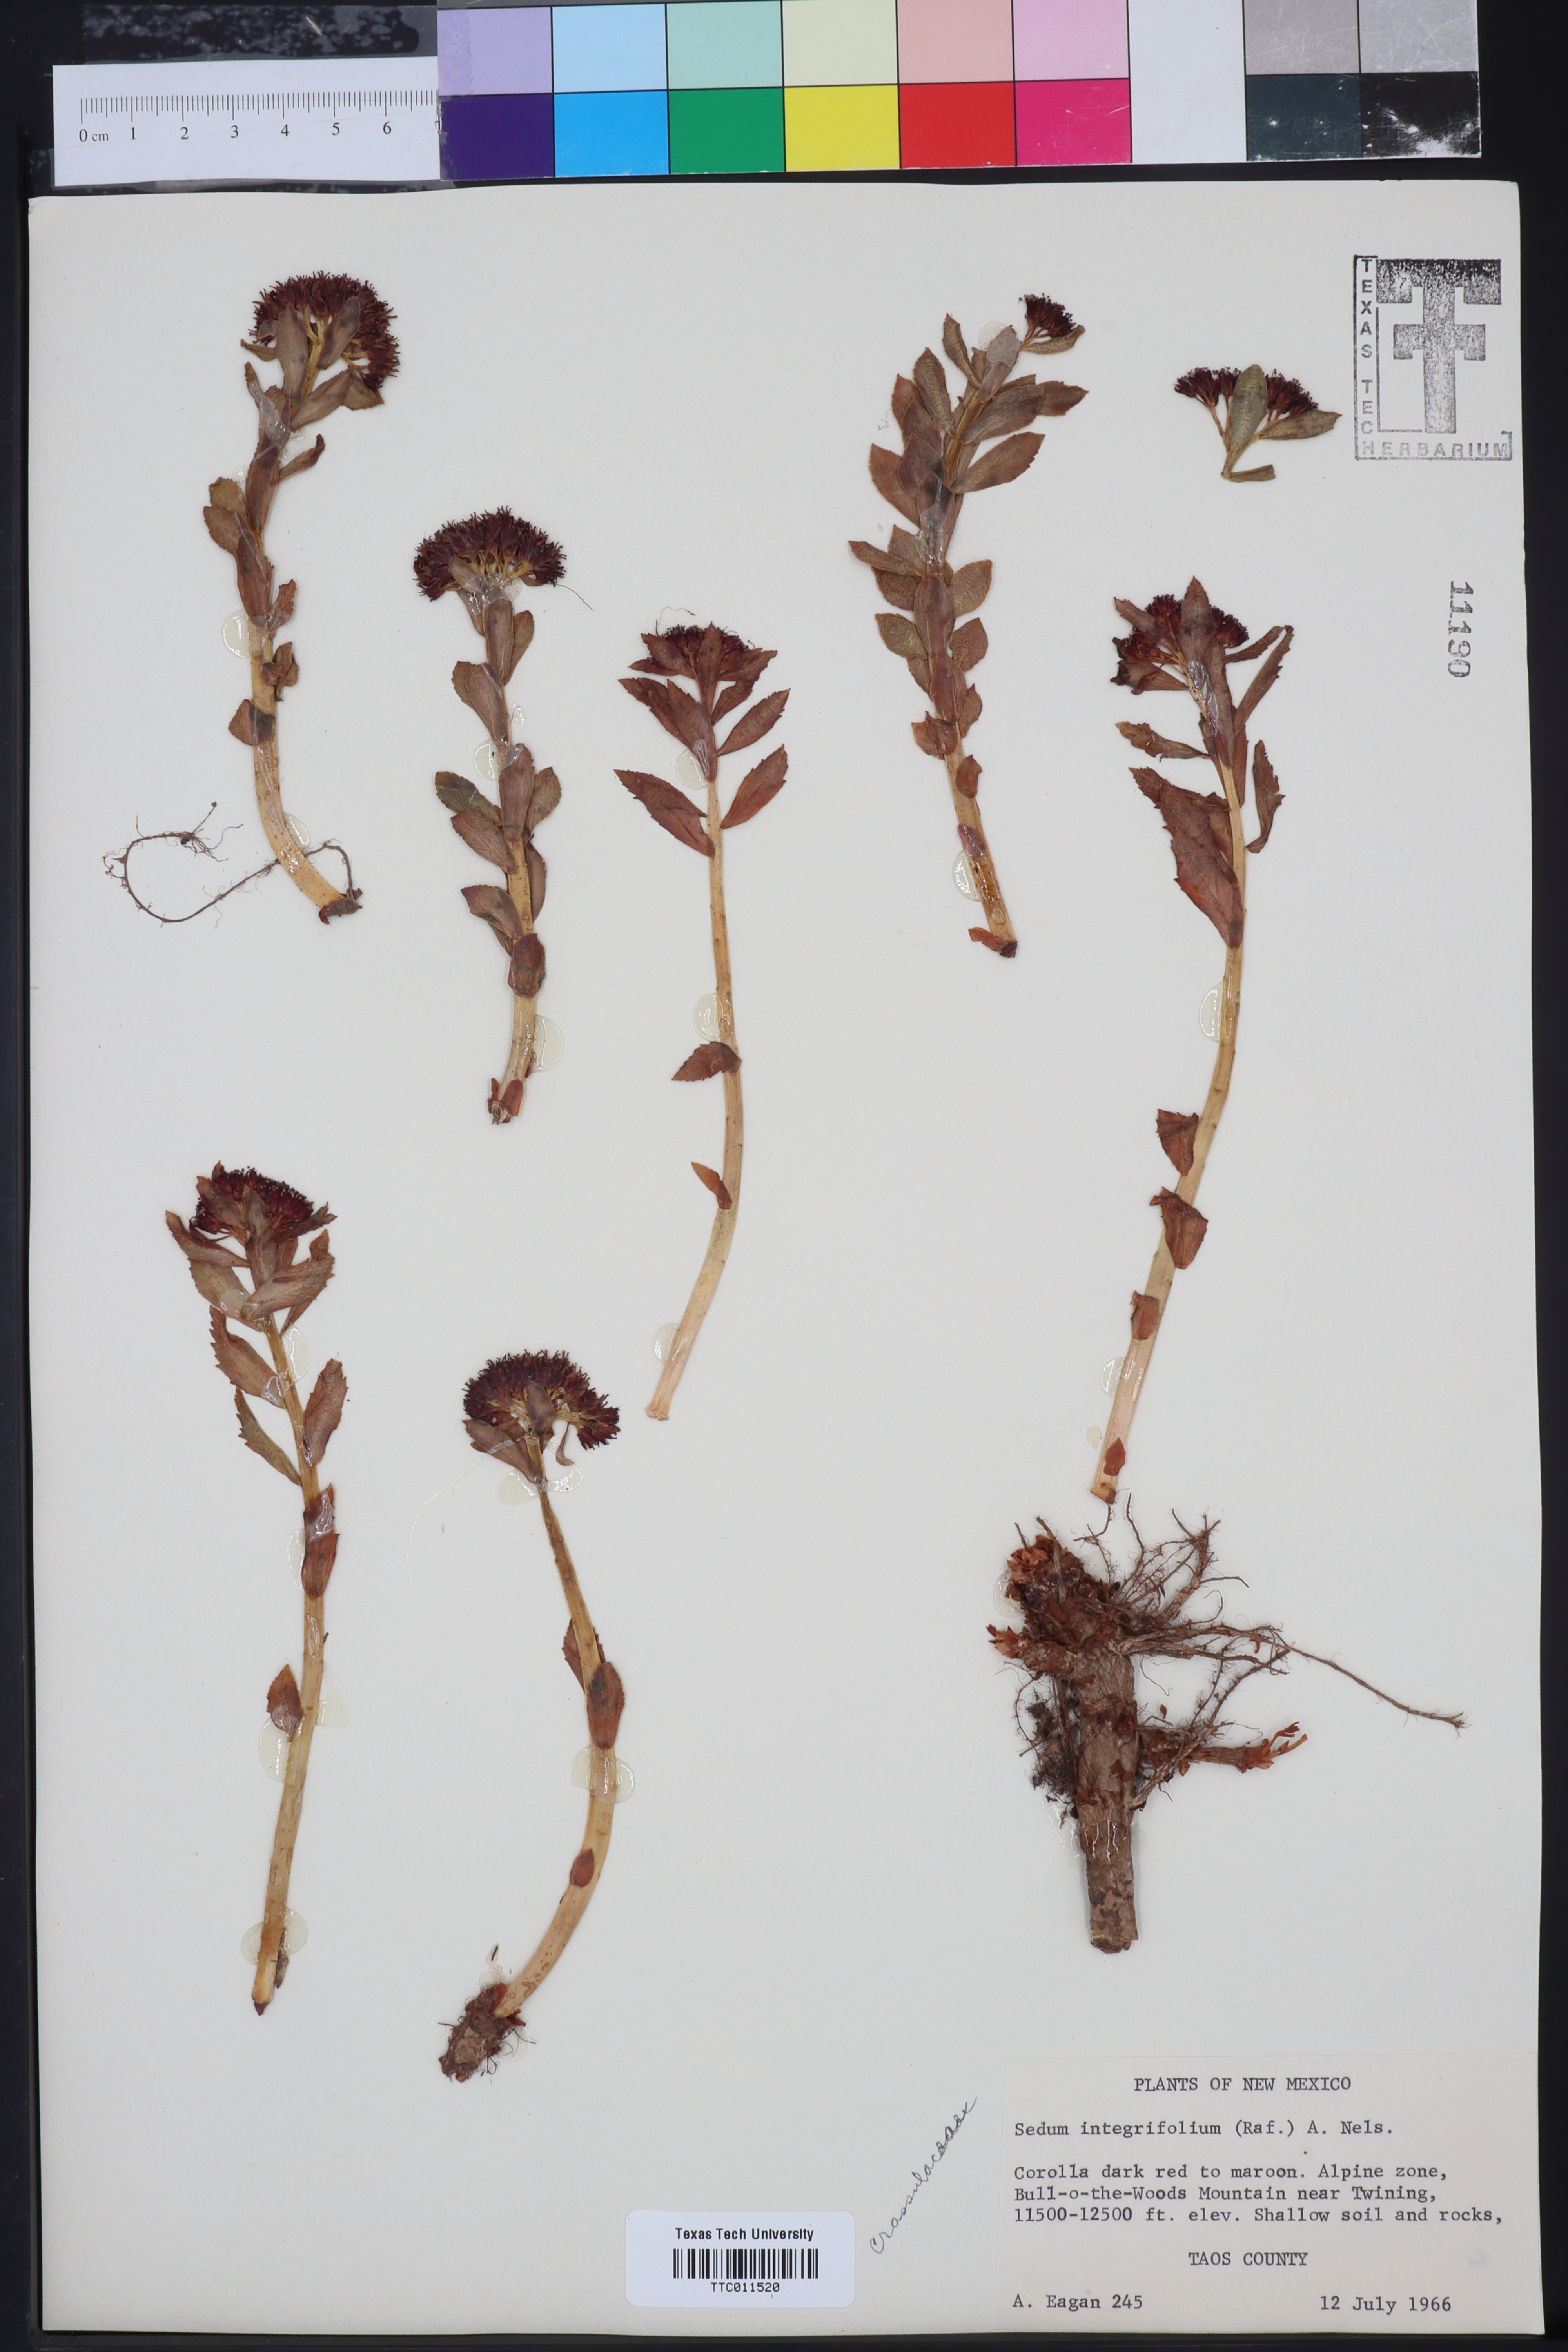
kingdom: Plantae
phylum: Tracheophyta
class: Magnoliopsida
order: Saxifragales
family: Crassulaceae
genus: Rhodiola
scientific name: Rhodiola integrifolia
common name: Western roseroot
